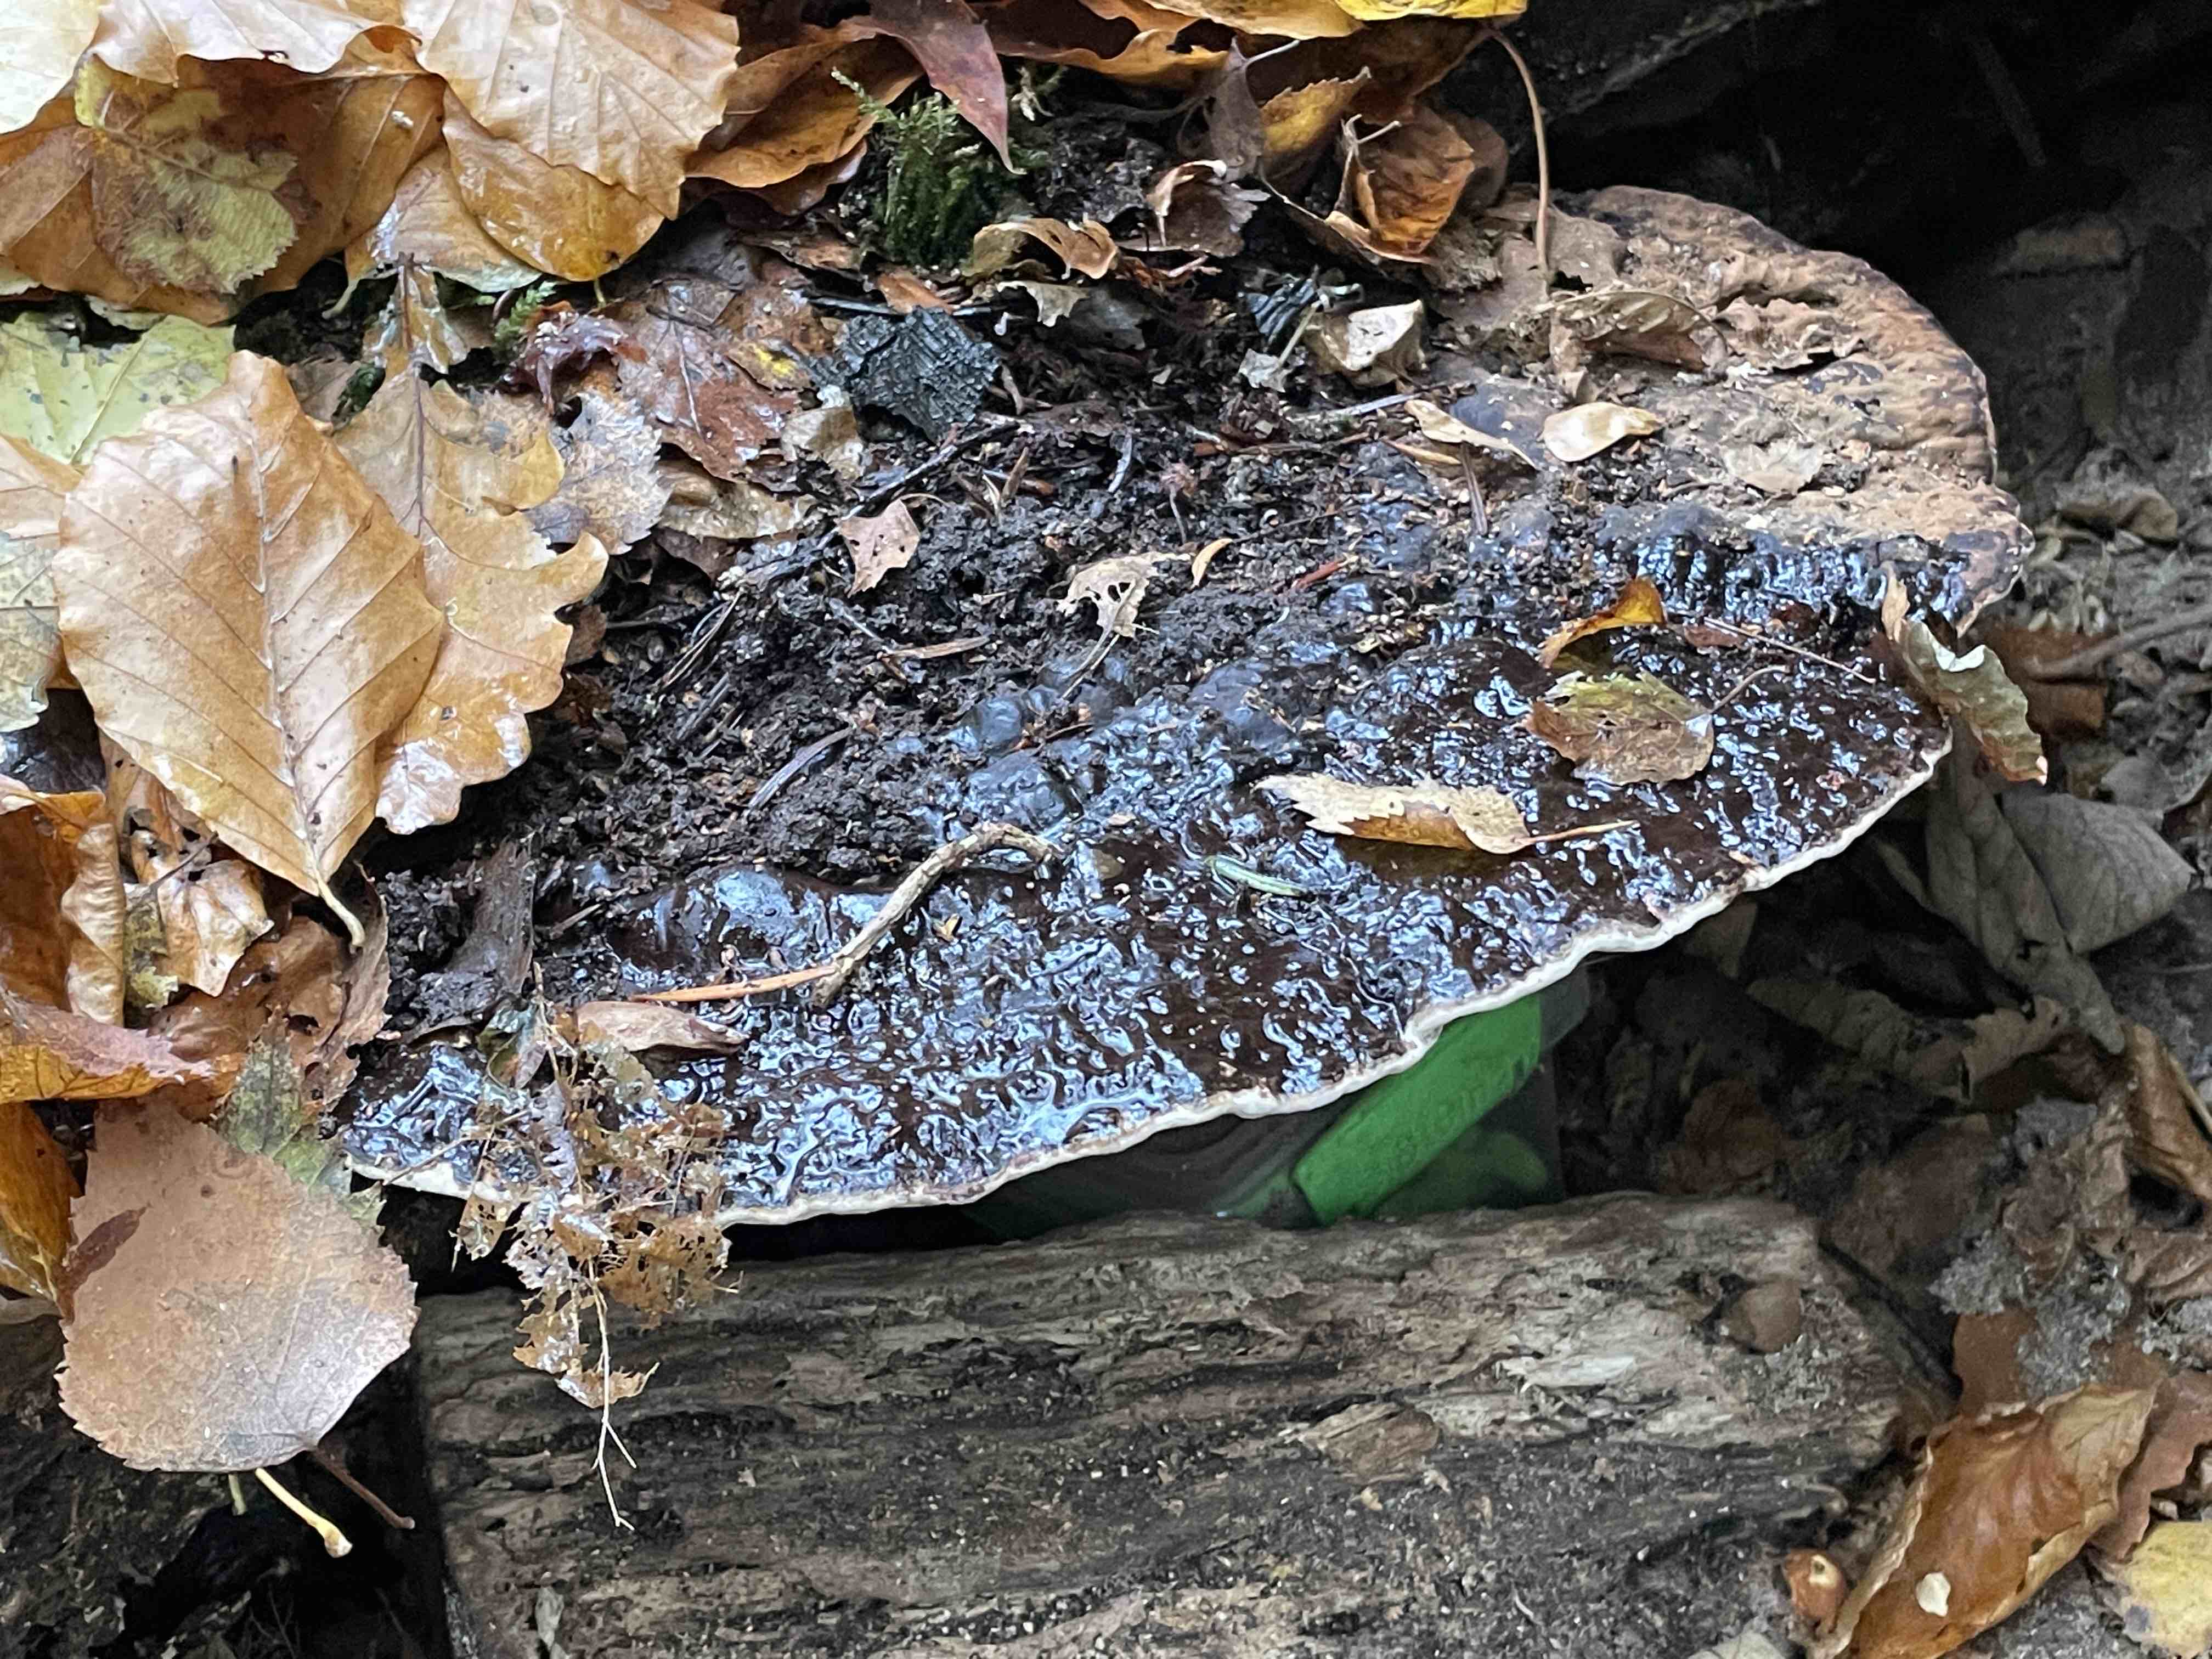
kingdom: Fungi
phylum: Basidiomycota
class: Agaricomycetes
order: Polyporales
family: Polyporaceae
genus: Ganoderma
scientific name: Ganoderma applanatum
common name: flad lakporesvamp
